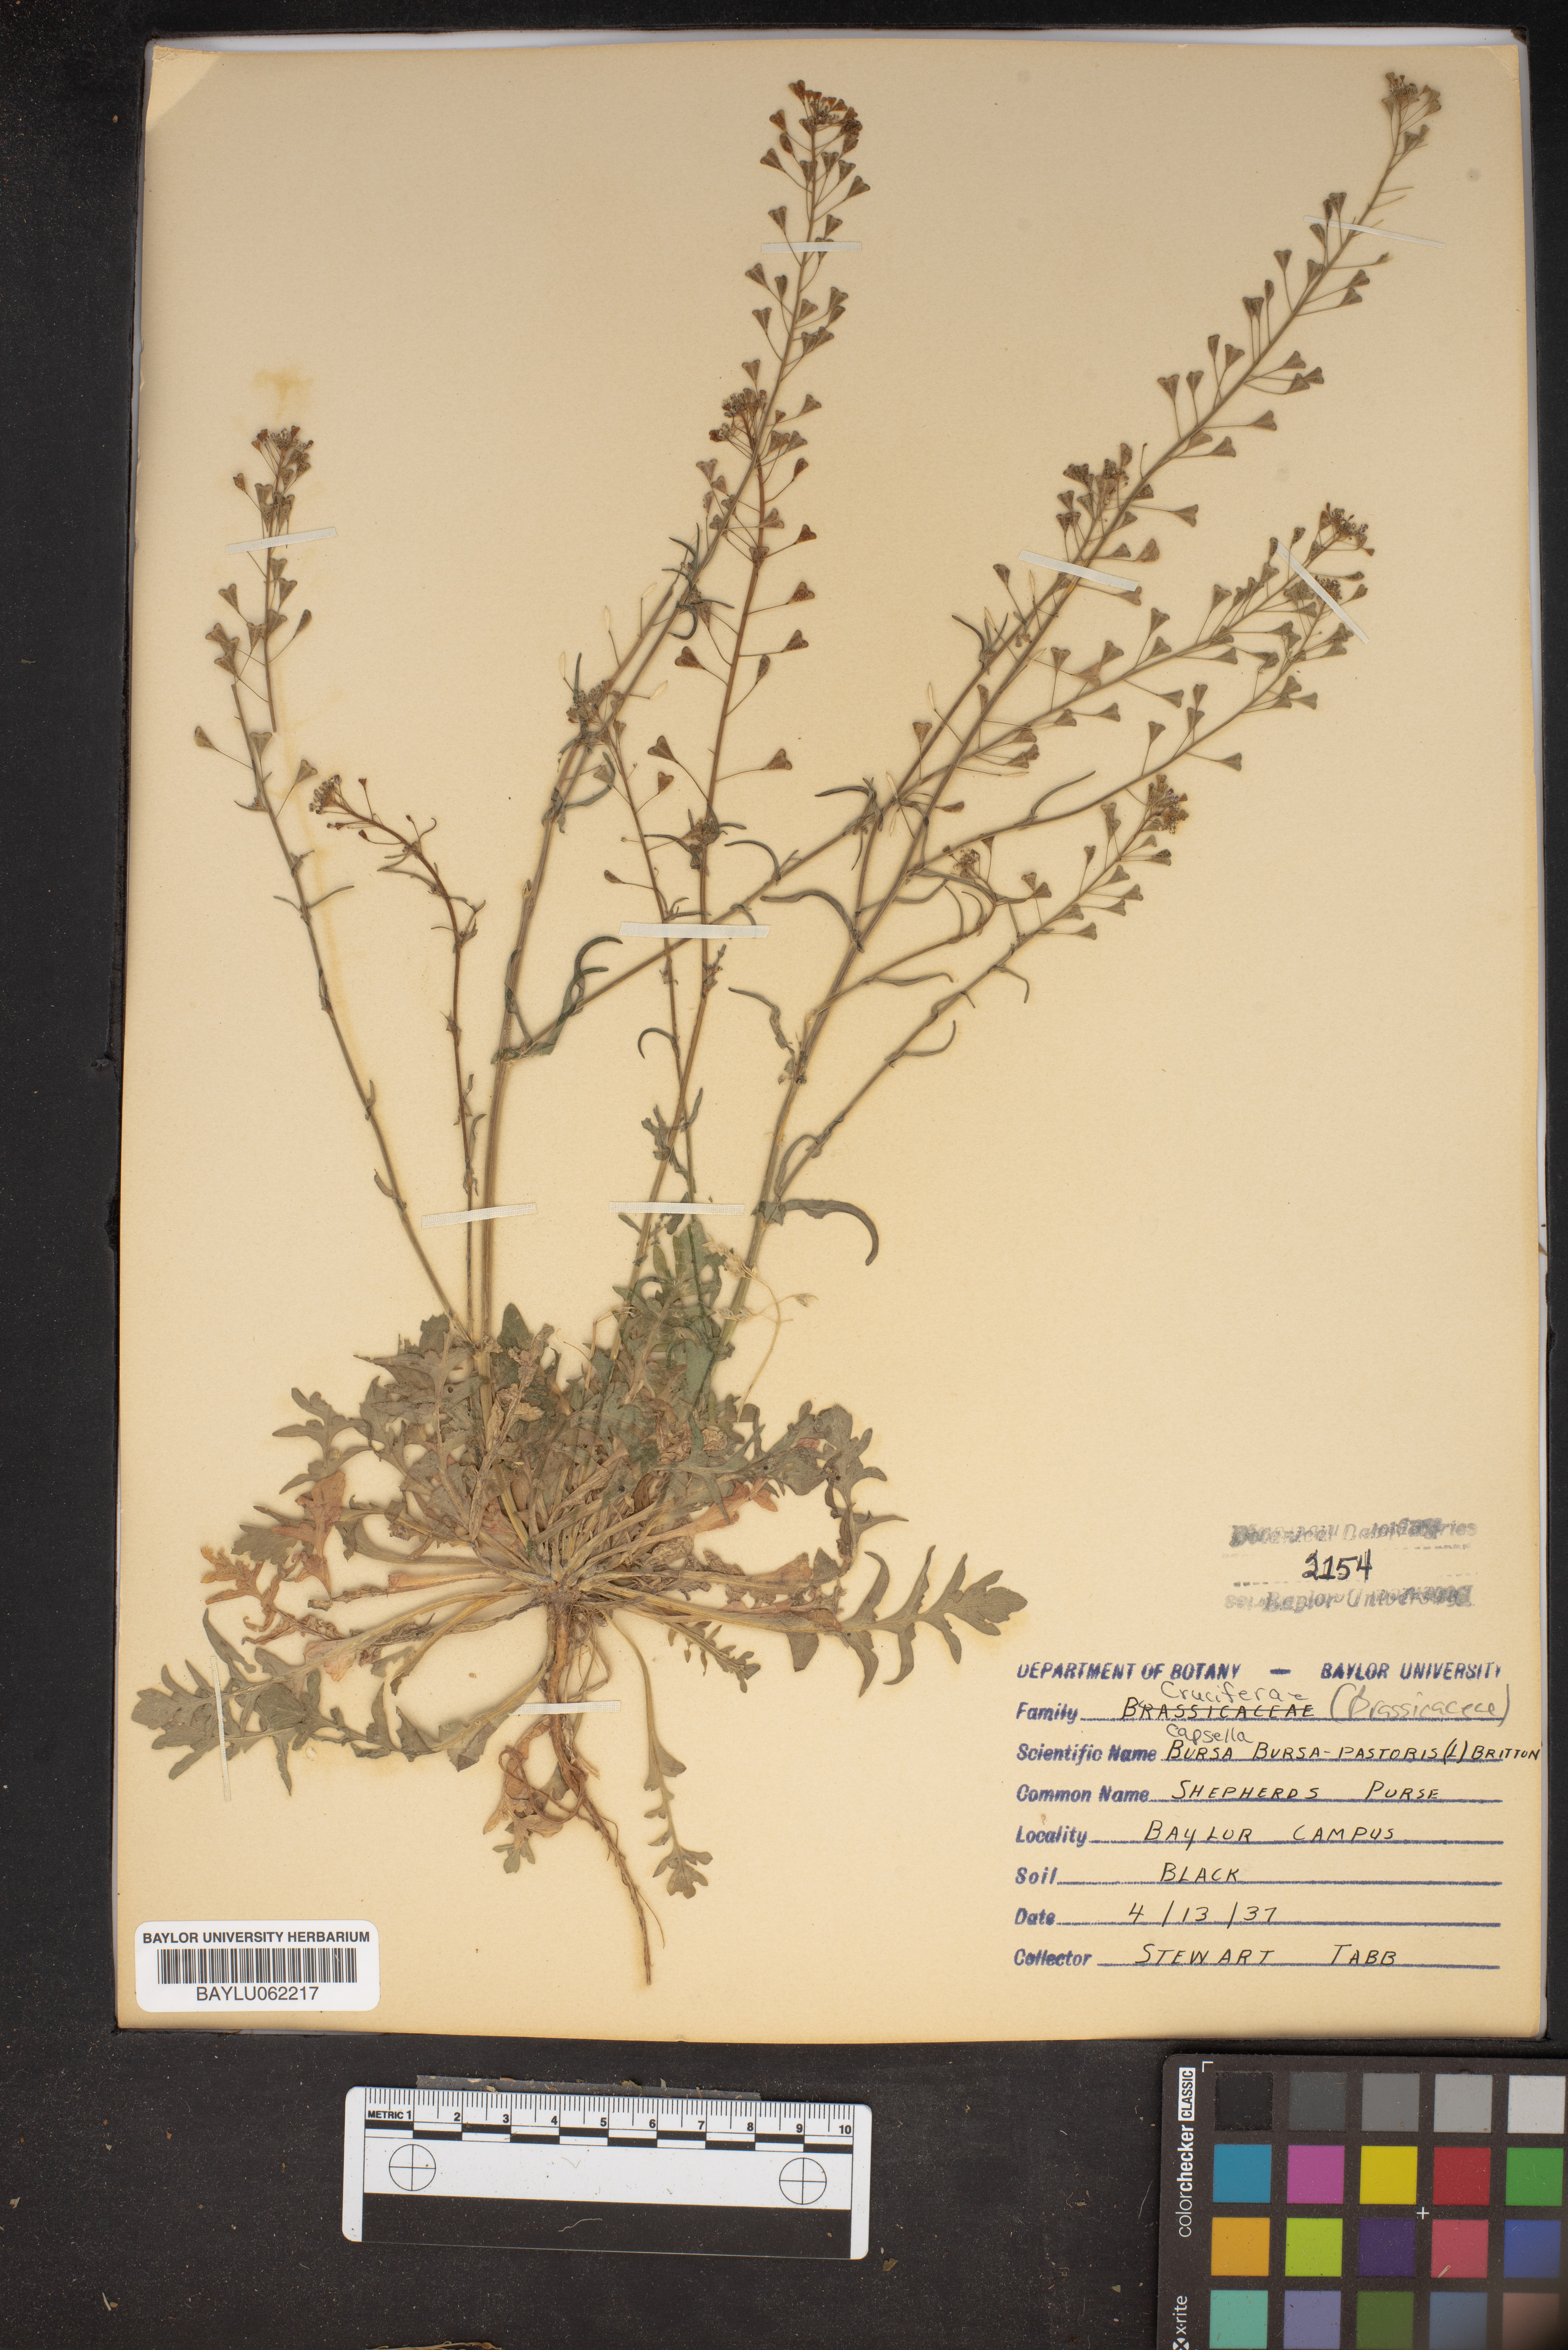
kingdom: Plantae
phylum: Tracheophyta
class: Magnoliopsida
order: Brassicales
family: Brassicaceae
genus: Capsella
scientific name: Capsella bursa-pastoris
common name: Shepherd's purse
